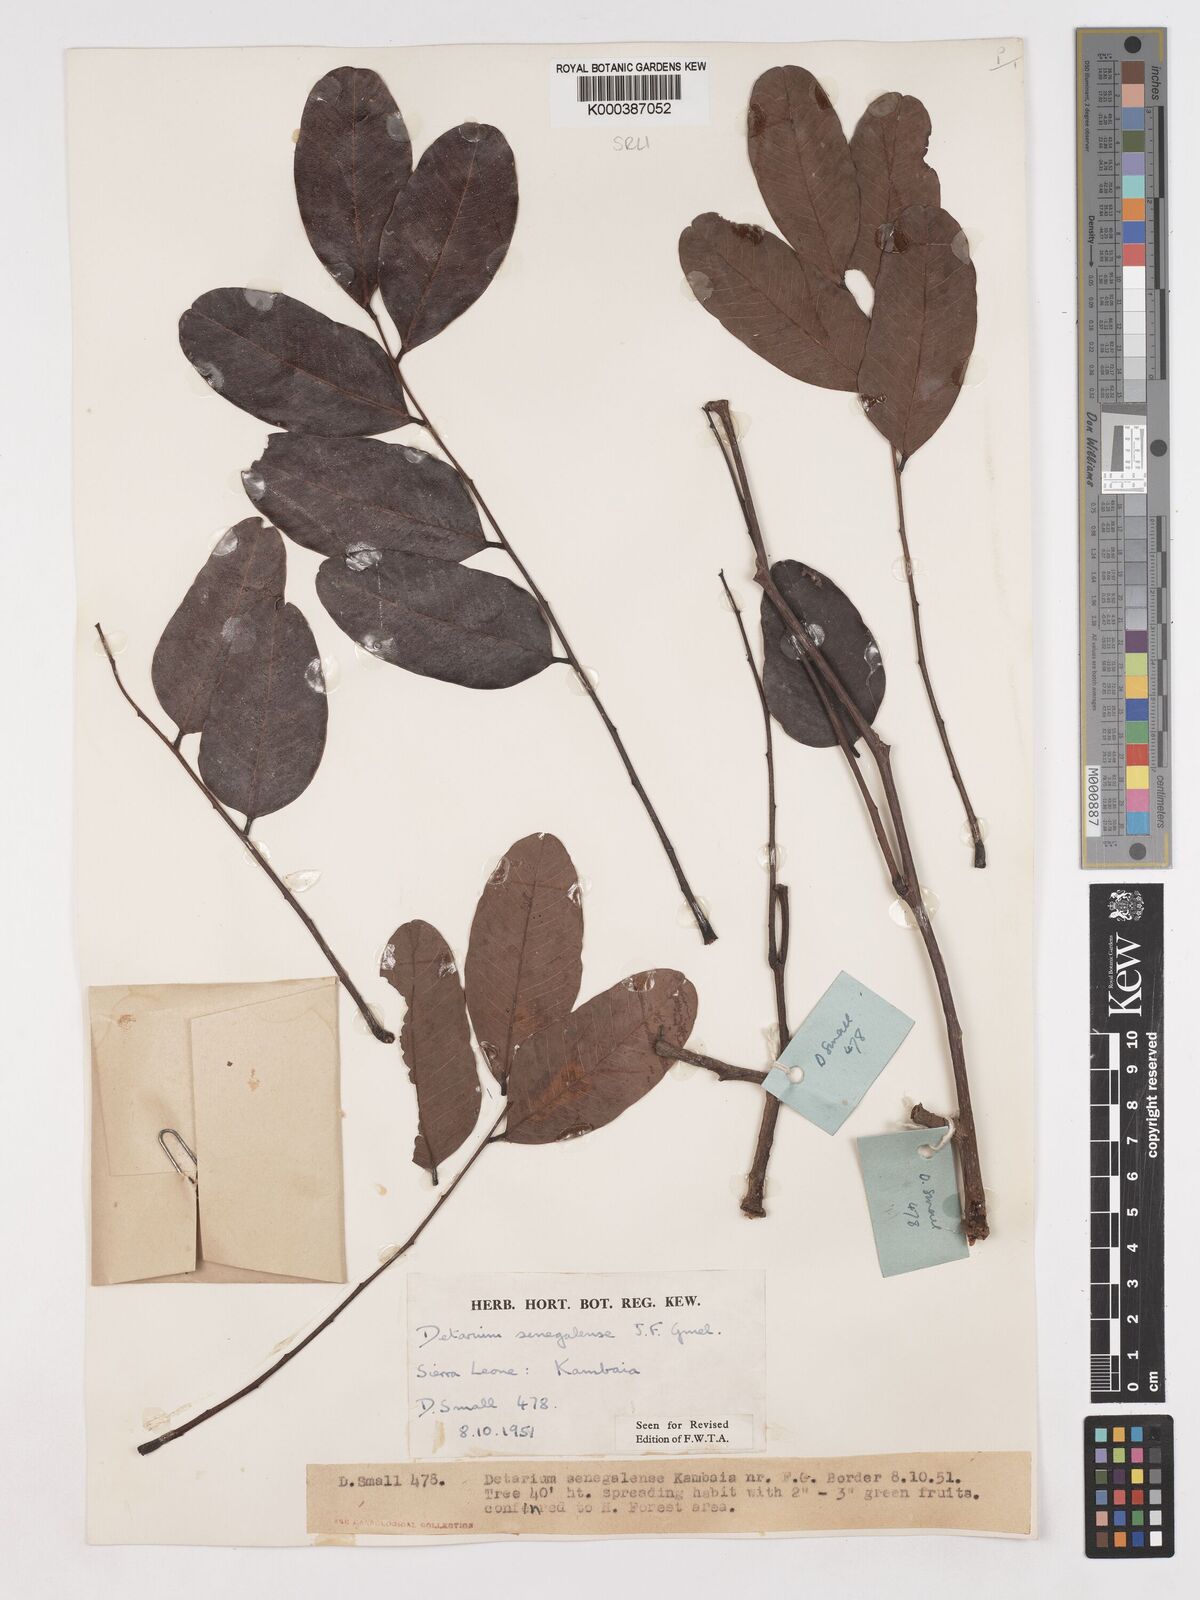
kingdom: Plantae
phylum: Tracheophyta
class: Magnoliopsida
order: Fabales
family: Fabaceae
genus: Detarium
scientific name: Detarium microcarpum
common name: Sweet dattock
